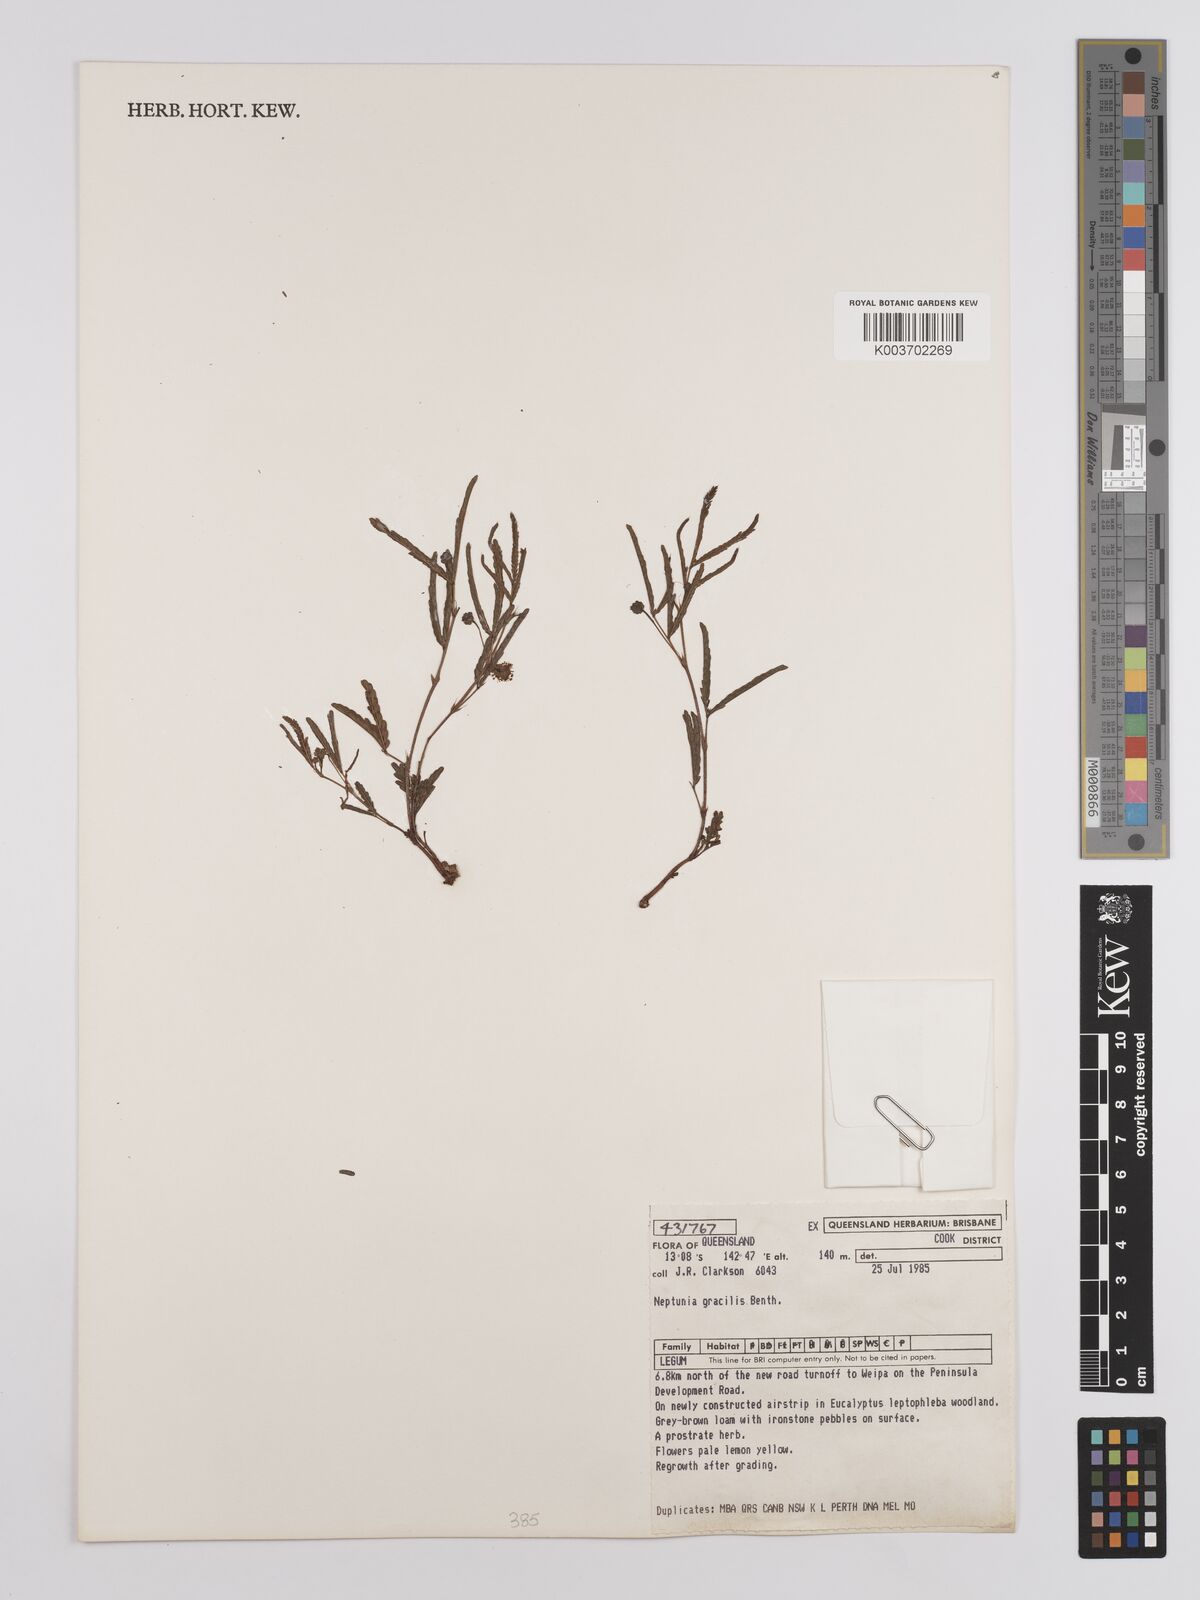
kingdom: Plantae
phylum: Tracheophyta
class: Magnoliopsida
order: Fabales
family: Fabaceae
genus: Neptunia
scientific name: Neptunia gracilis
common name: Sensitive-plant
